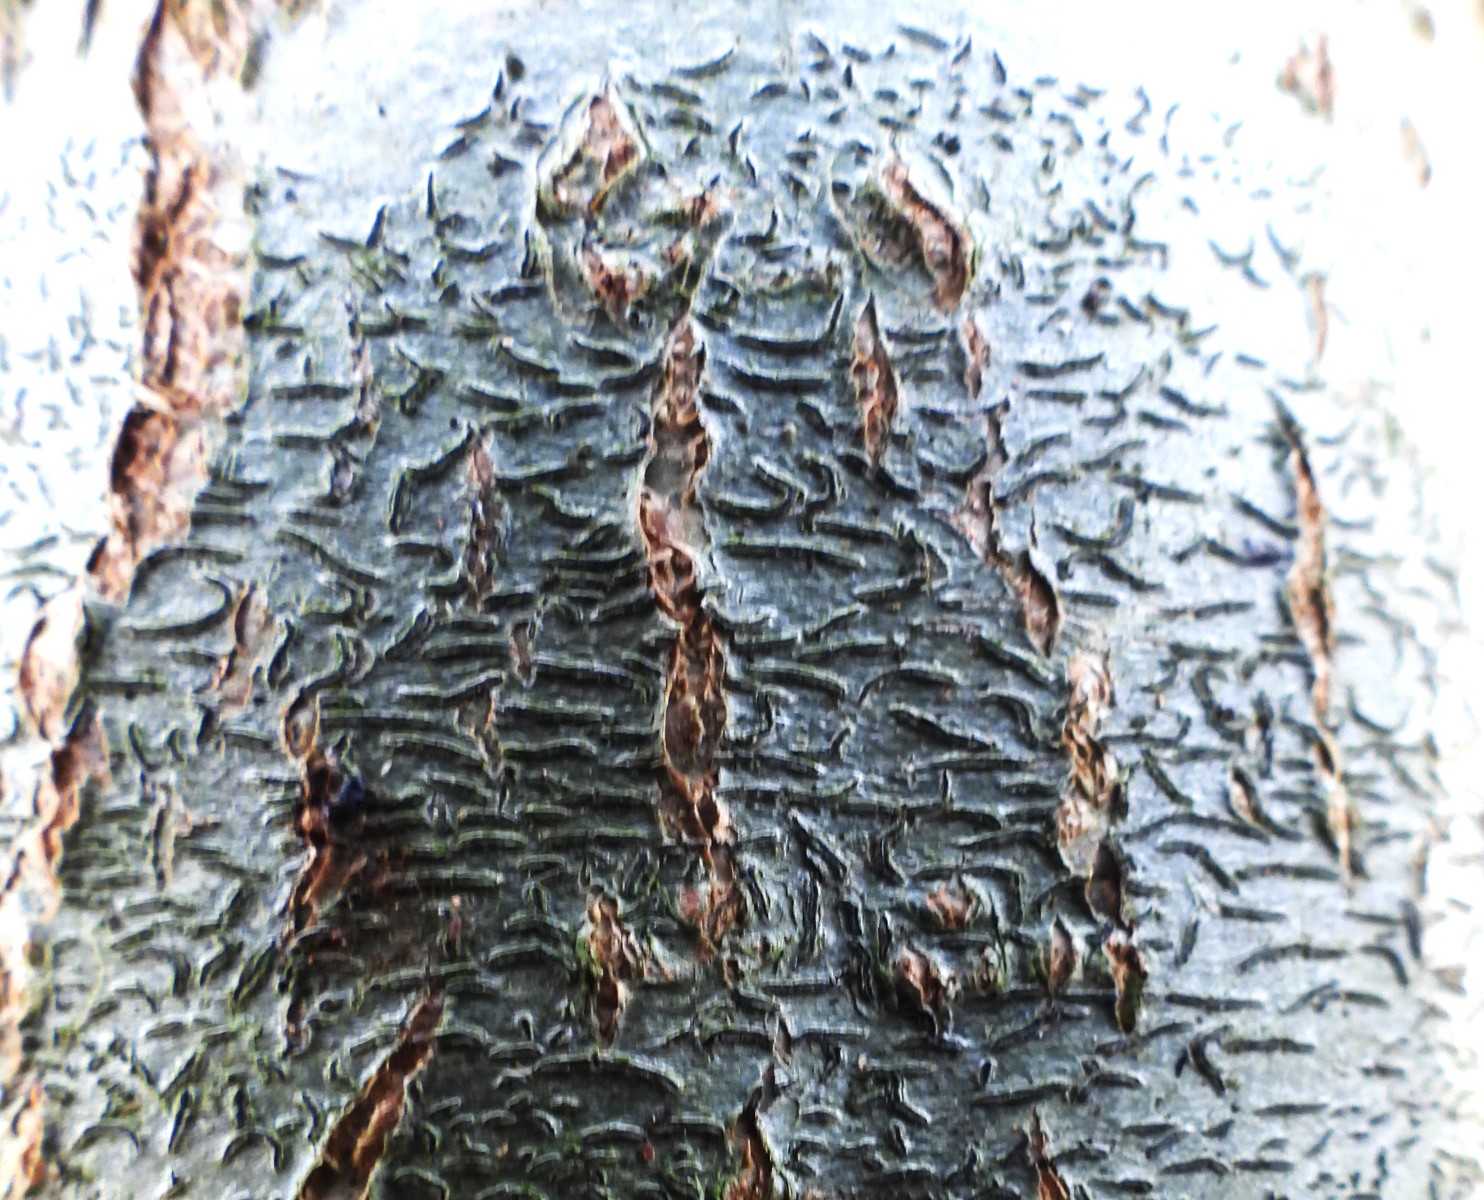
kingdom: Fungi
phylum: Ascomycota
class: Lecanoromycetes
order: Ostropales
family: Graphidaceae
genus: Graphis
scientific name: Graphis scripta
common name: almindelig skriftlav
